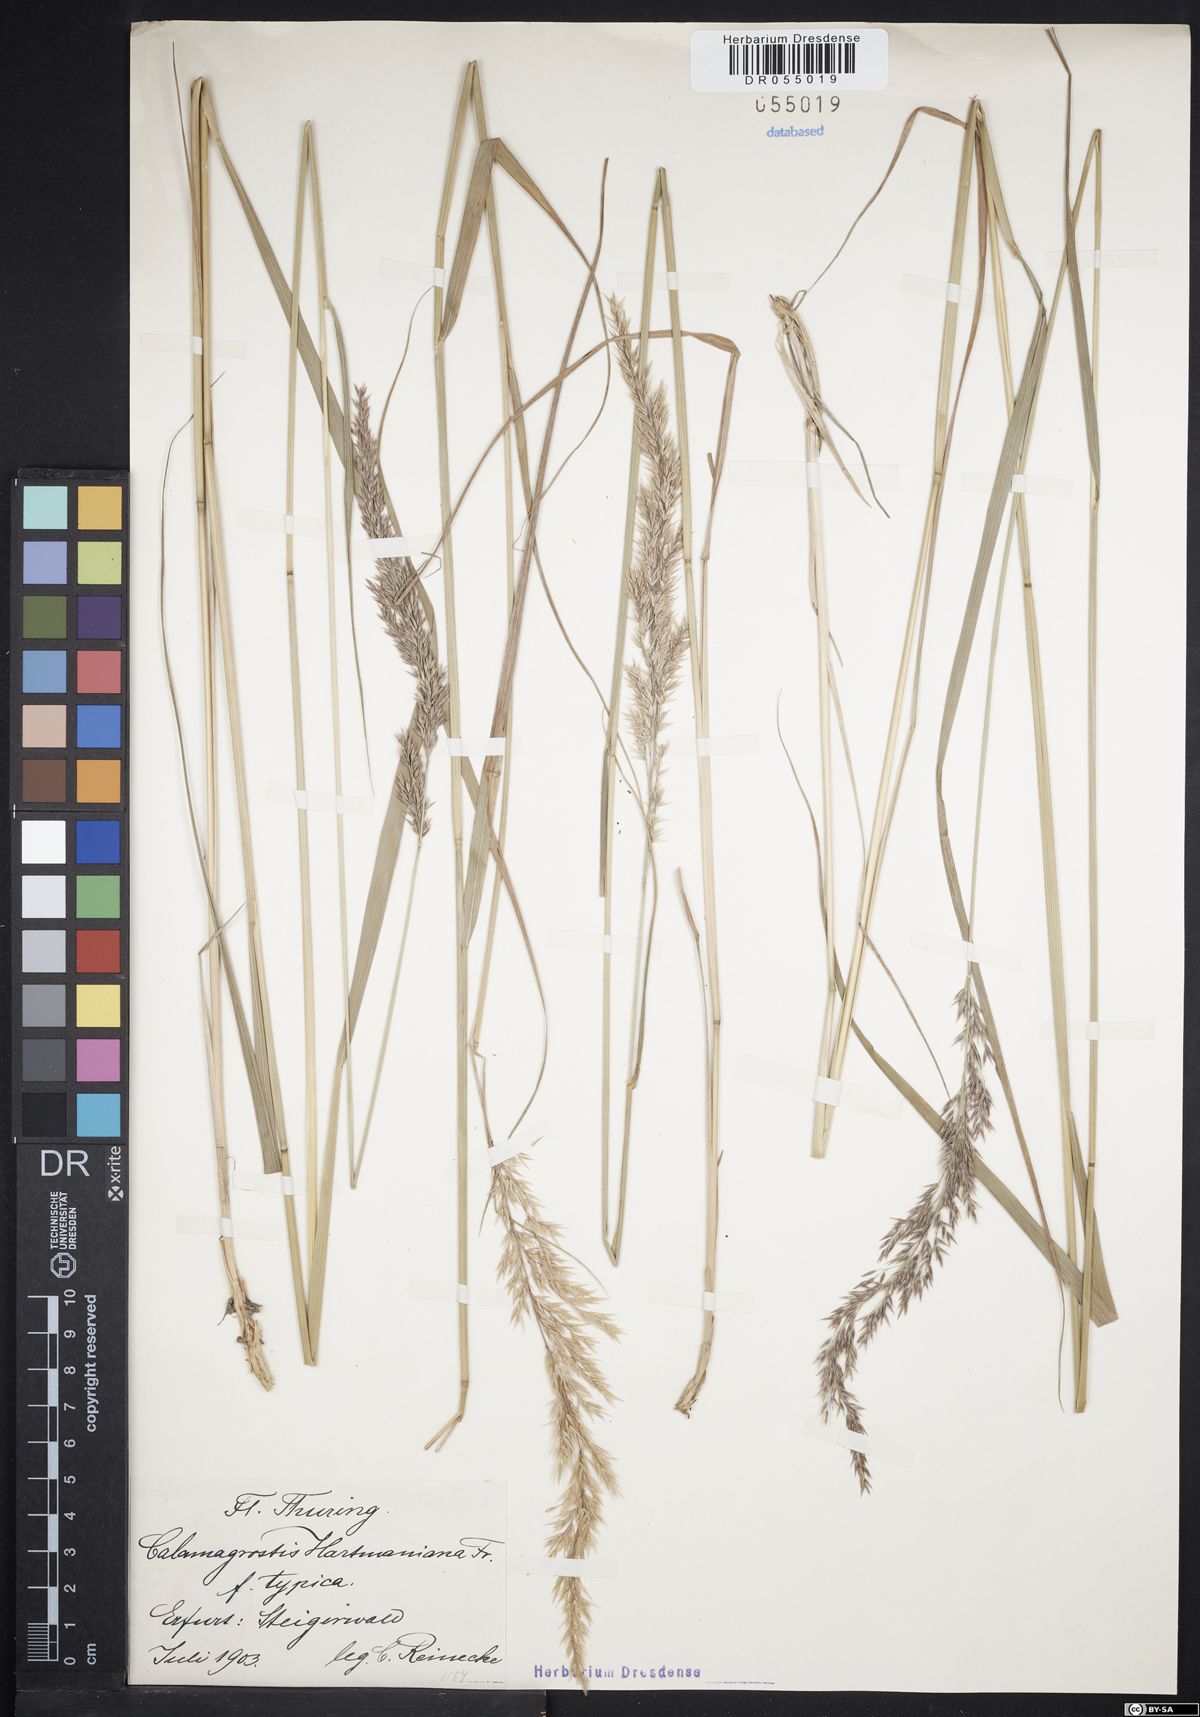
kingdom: Plantae
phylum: Tracheophyta
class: Liliopsida
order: Poales
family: Poaceae
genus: Calamagrostis
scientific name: Calamagrostis hartmaniana
